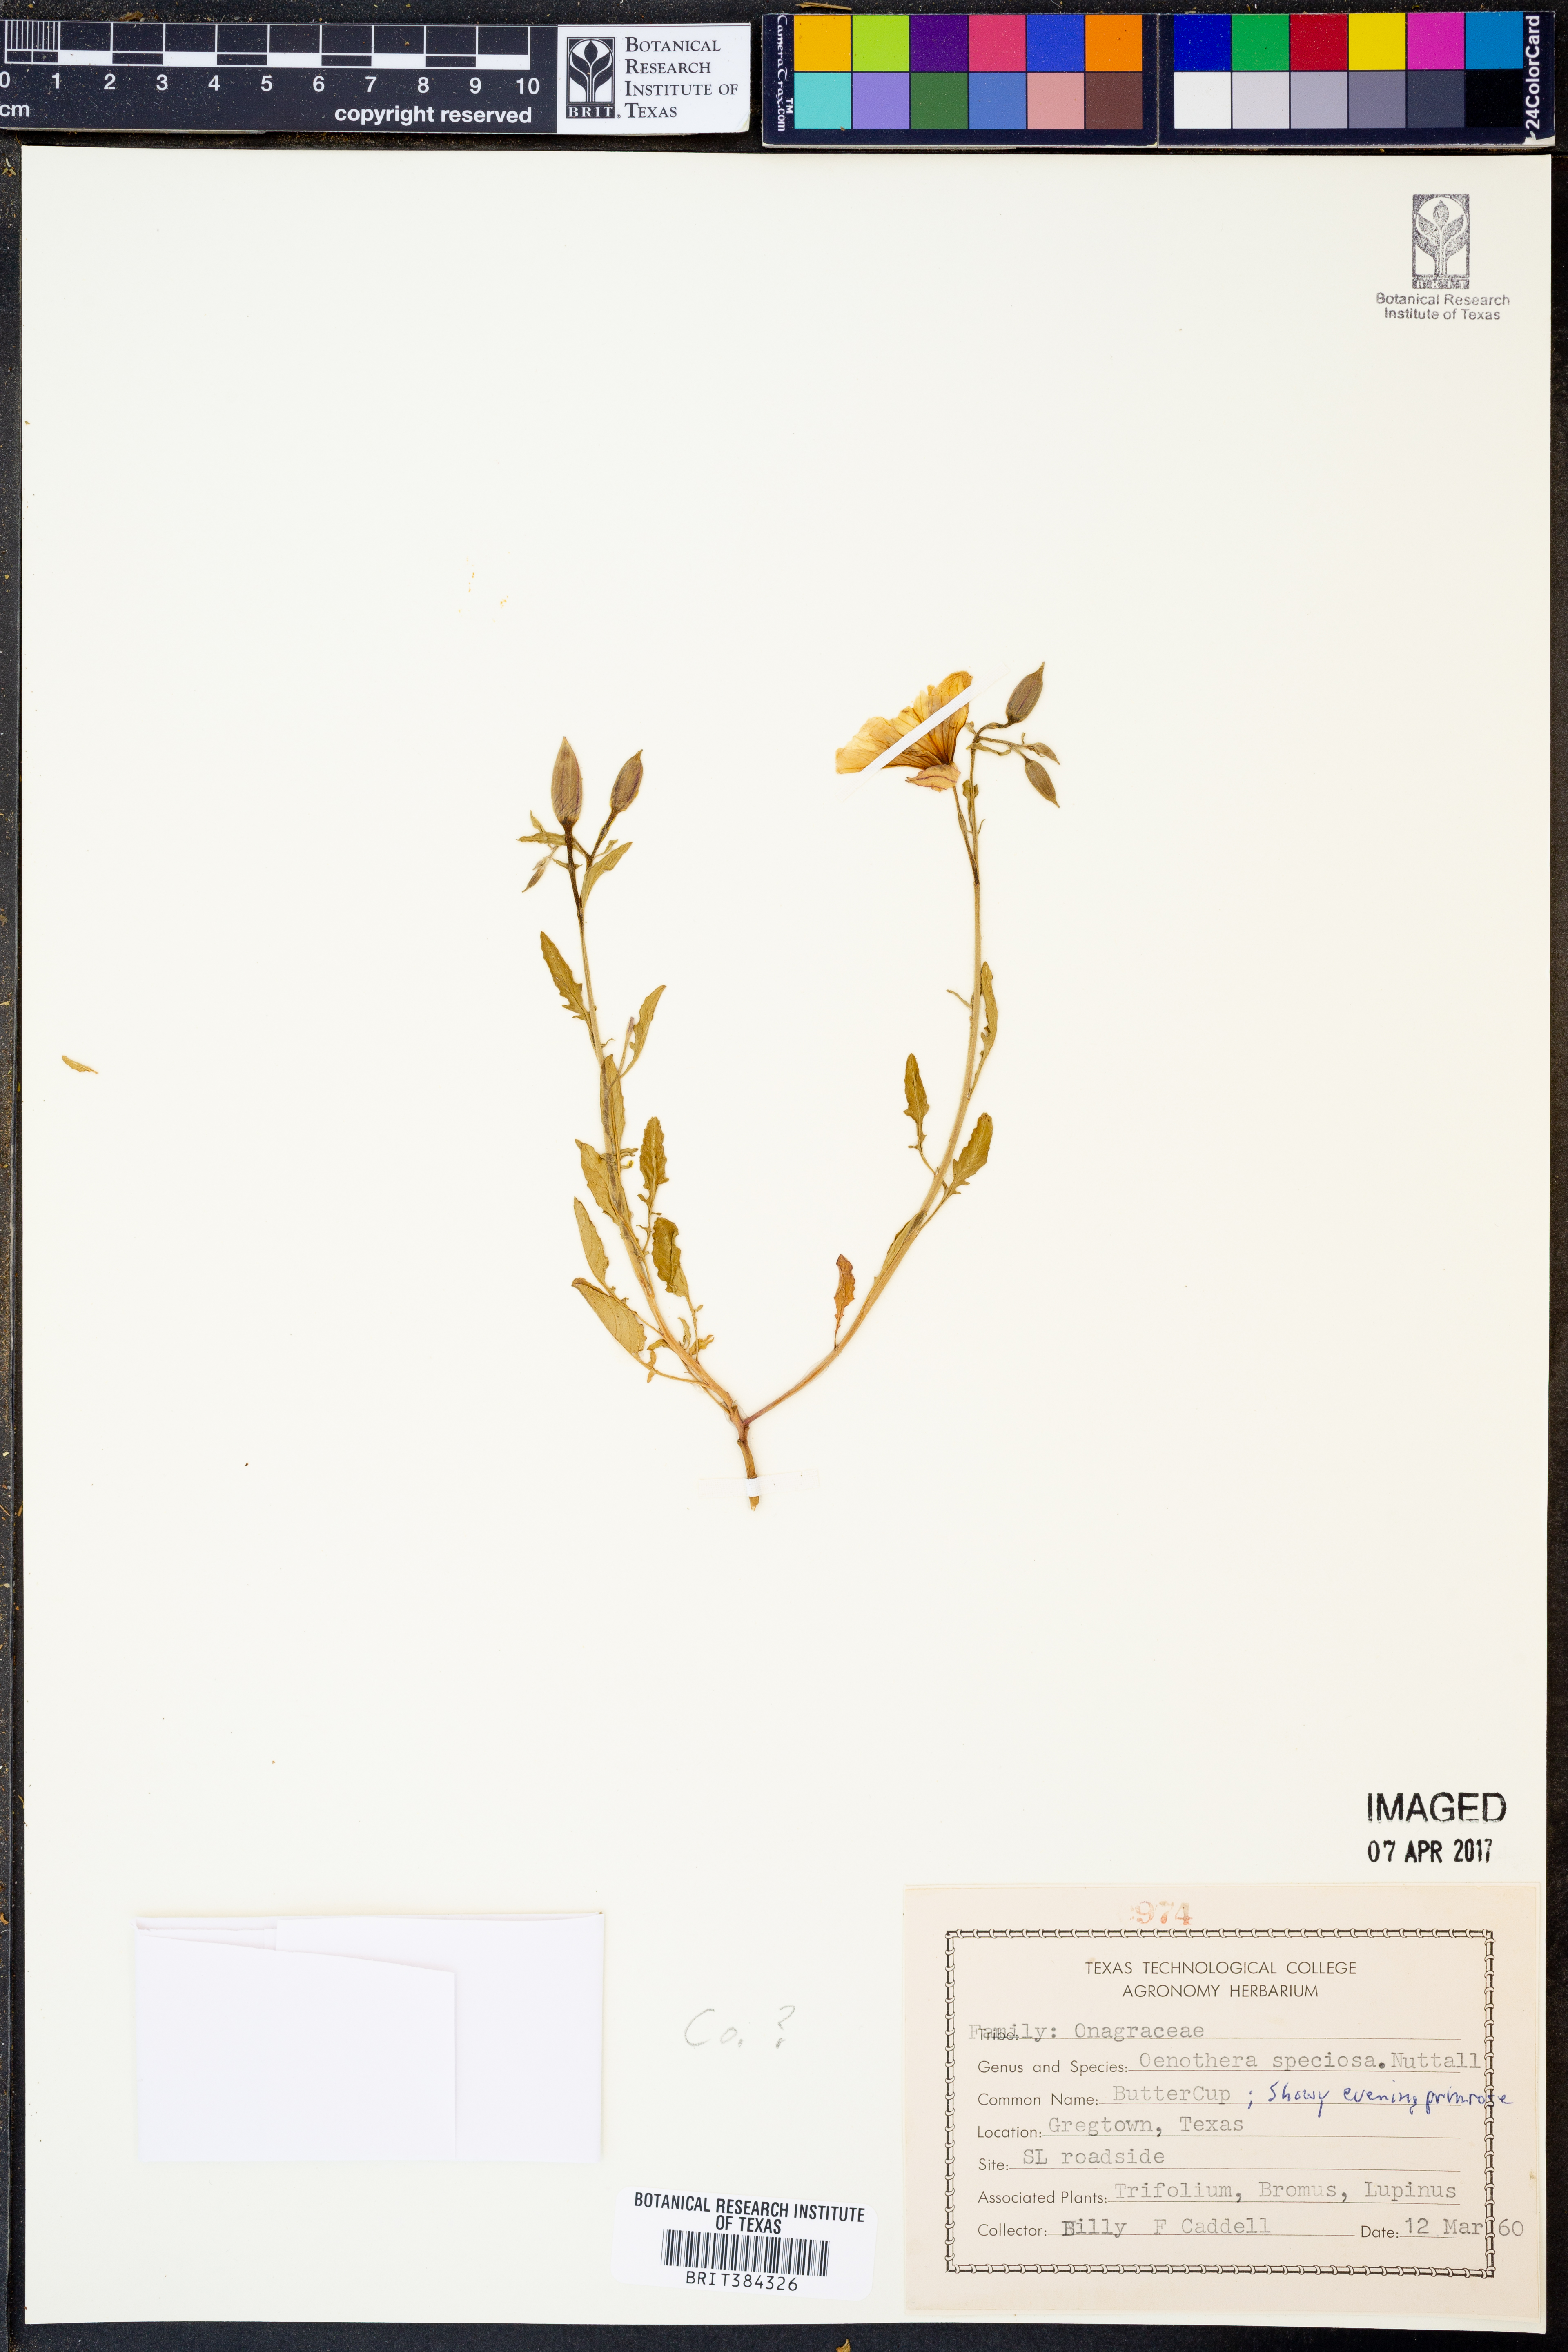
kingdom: Plantae
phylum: Tracheophyta
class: Magnoliopsida
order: Myrtales
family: Onagraceae
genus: Oenothera
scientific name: Oenothera speciosa
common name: White evening-primrose
